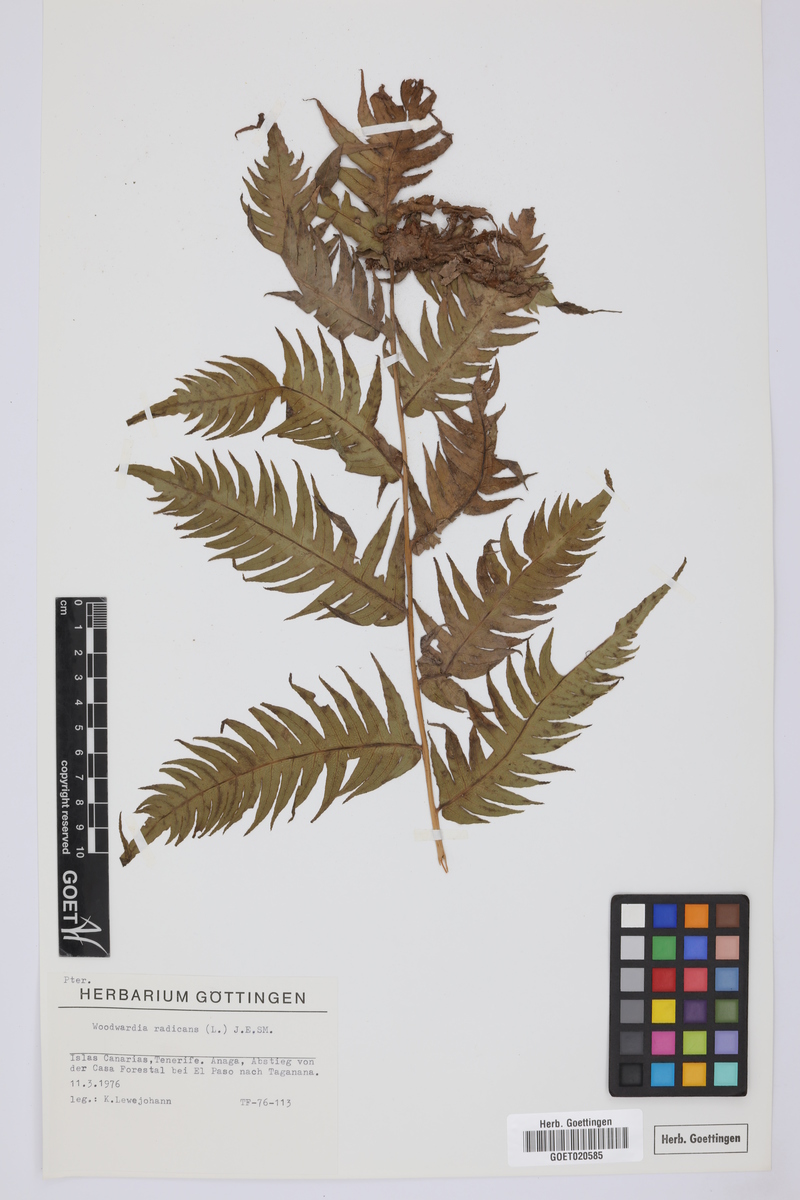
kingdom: Plantae
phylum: Tracheophyta
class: Polypodiopsida
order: Polypodiales
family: Blechnaceae
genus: Woodwardia
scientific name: Woodwardia radicans
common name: Rooting chainfern
